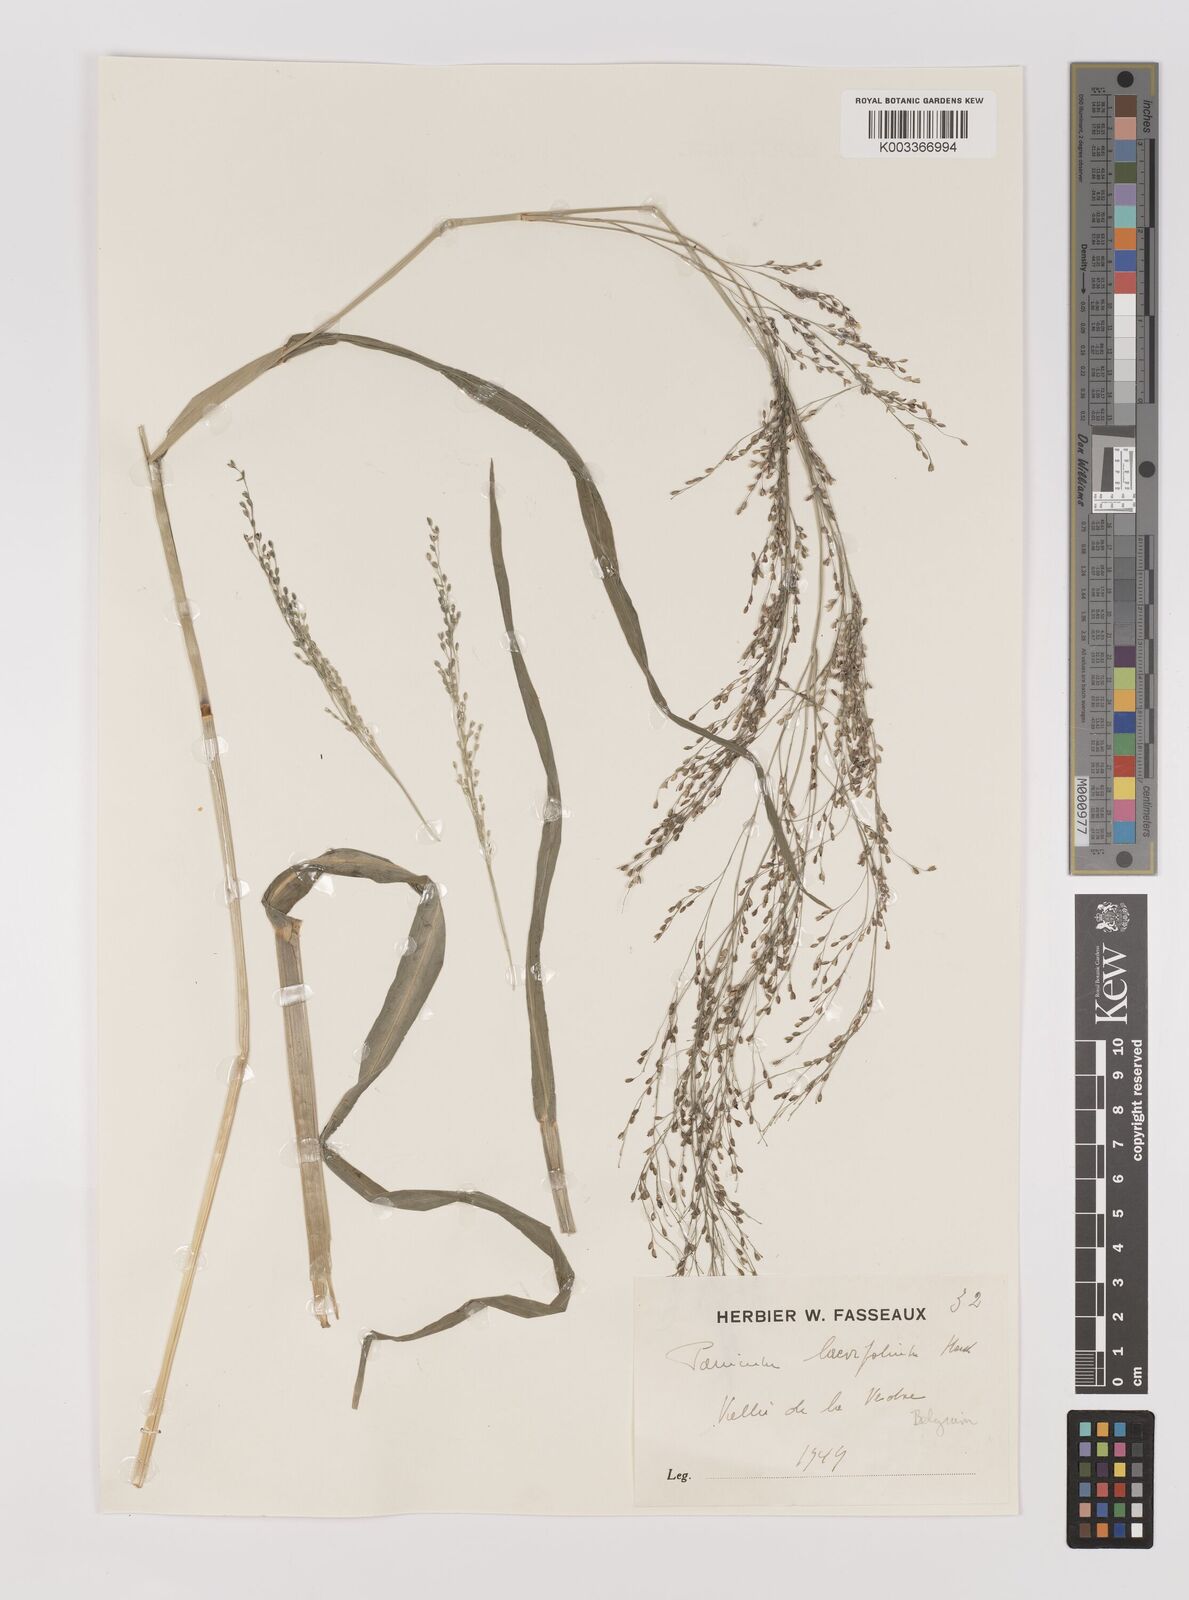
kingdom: Plantae
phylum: Tracheophyta
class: Liliopsida
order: Poales
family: Poaceae
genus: Panicum
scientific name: Panicum schinzii
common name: Sweet grass
